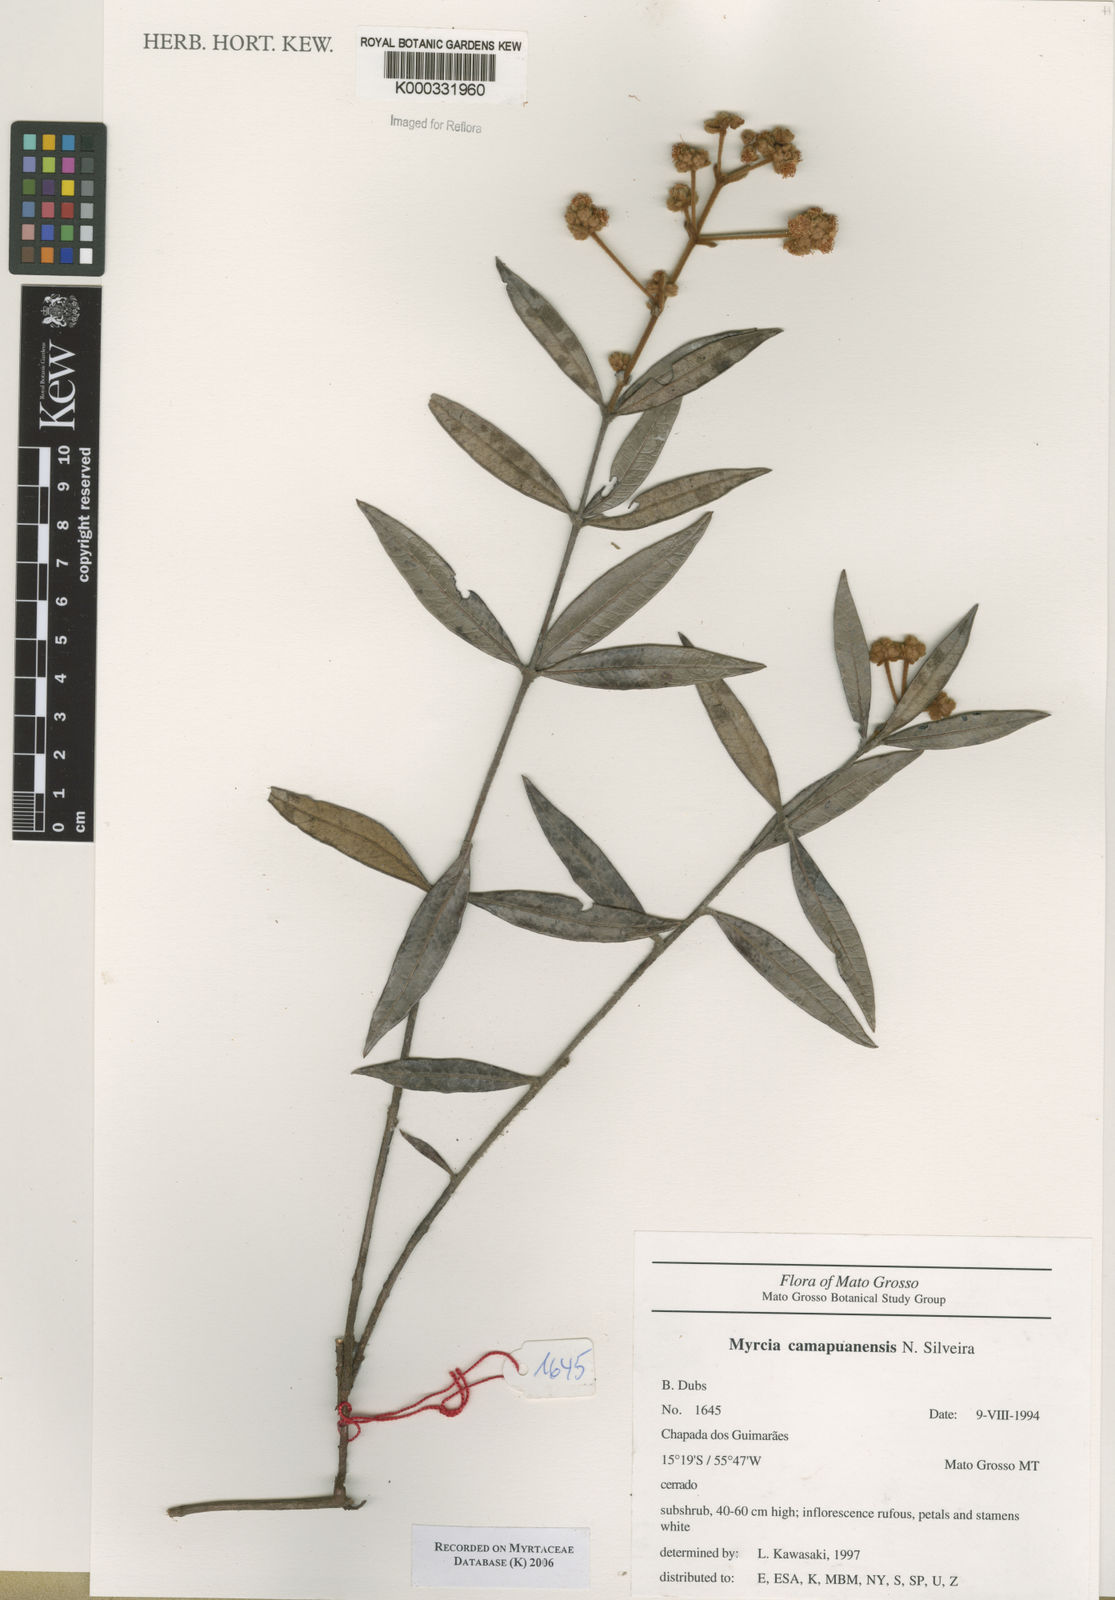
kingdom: Plantae
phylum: Tracheophyta
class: Magnoliopsida
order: Myrtales
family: Myrtaceae
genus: Myrcia
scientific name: Myrcia camapuanensis
